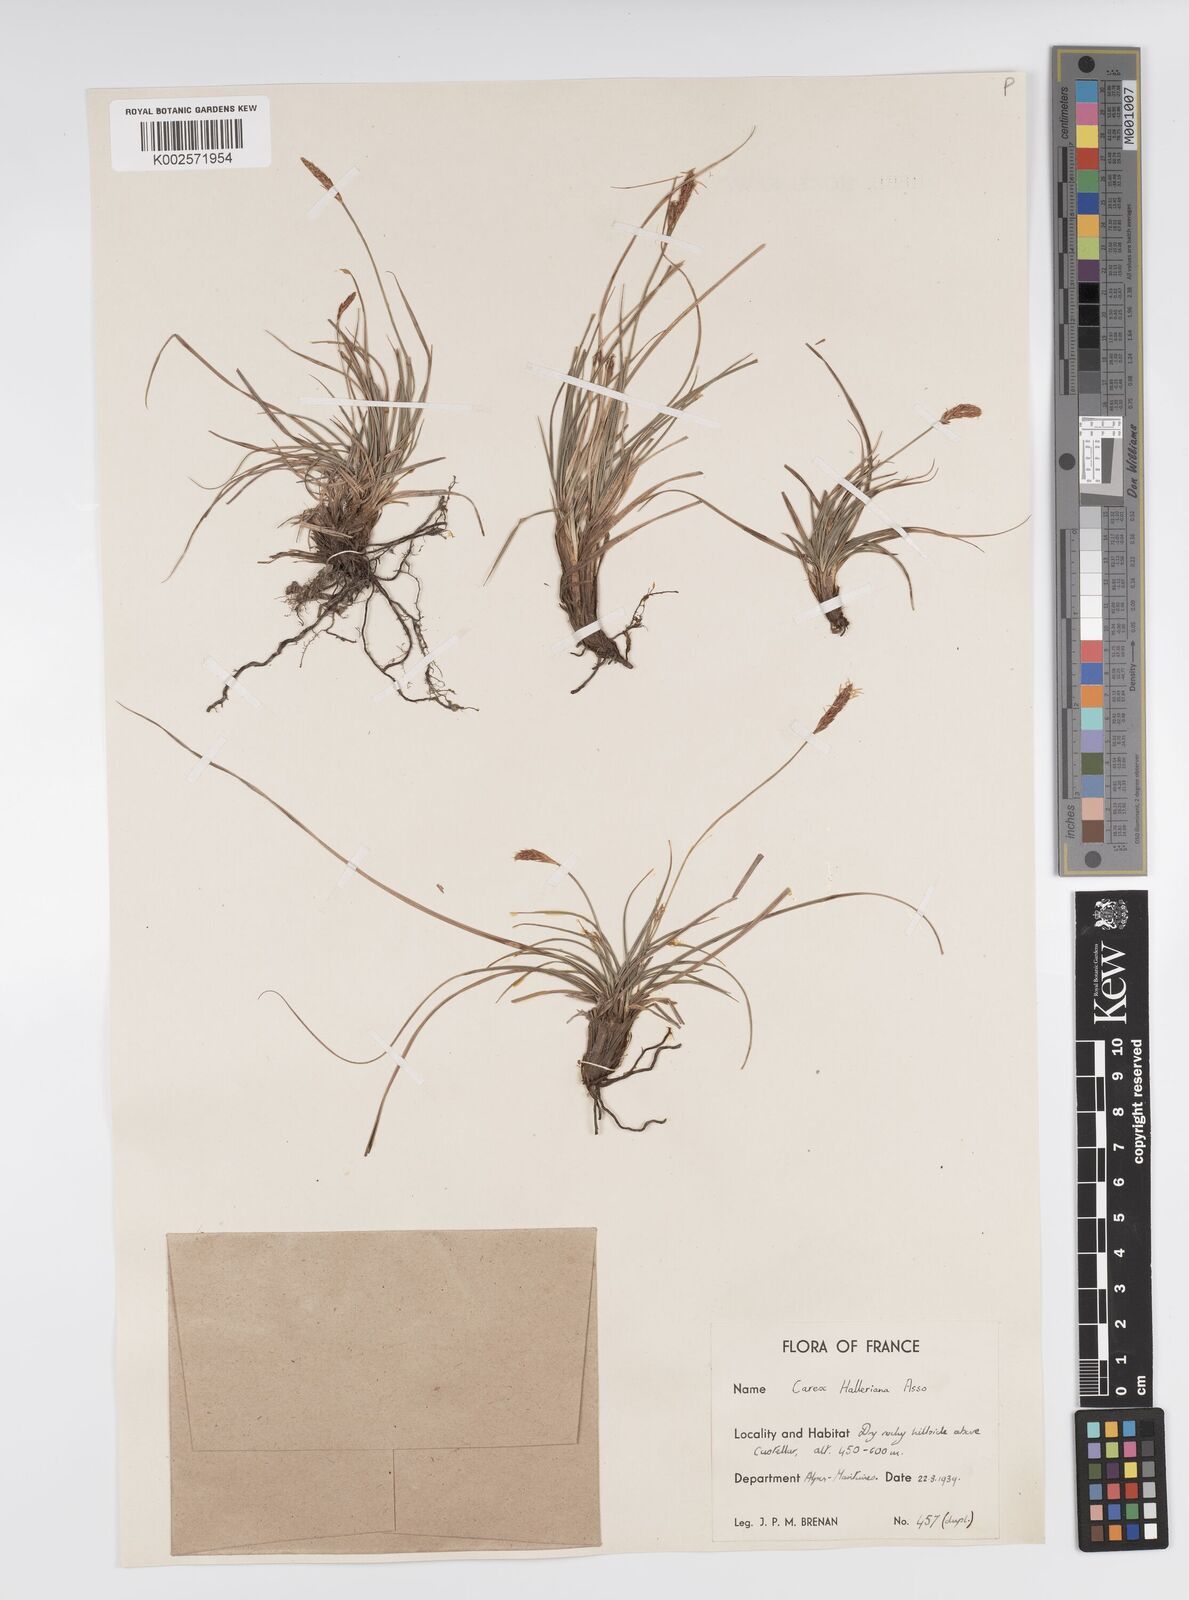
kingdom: Plantae
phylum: Tracheophyta
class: Liliopsida
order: Poales
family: Cyperaceae
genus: Carex
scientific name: Carex halleriana
